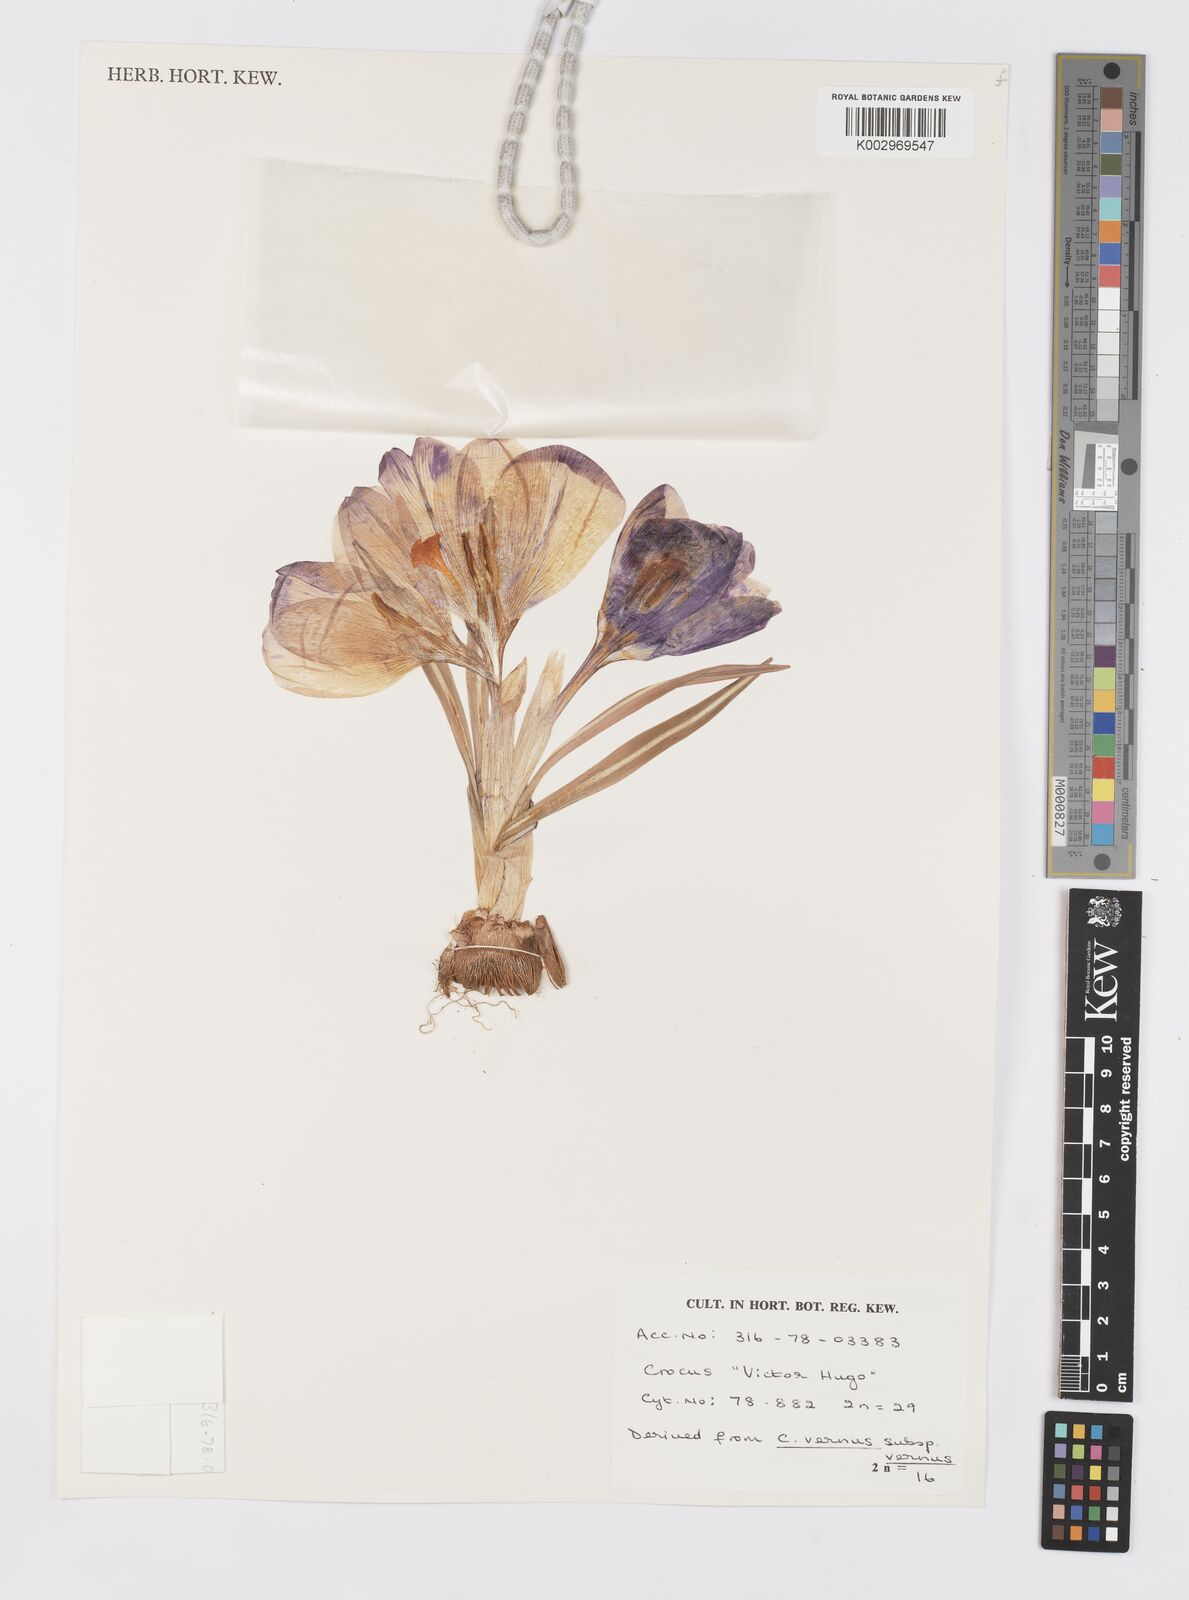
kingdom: Plantae
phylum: Tracheophyta
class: Liliopsida
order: Asparagales
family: Iridaceae
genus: Crocus
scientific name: Crocus vernus
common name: Spring crocus
